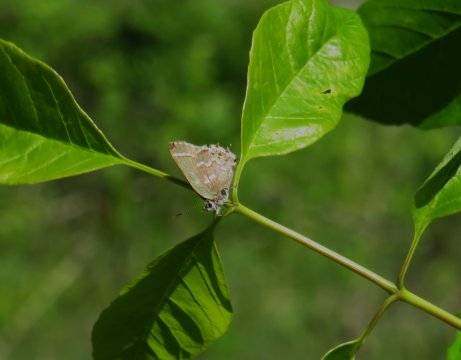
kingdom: Animalia
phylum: Arthropoda
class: Insecta
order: Lepidoptera
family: Lycaenidae
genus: Mitoura
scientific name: Mitoura gryneus
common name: Juniper Hairstreak
